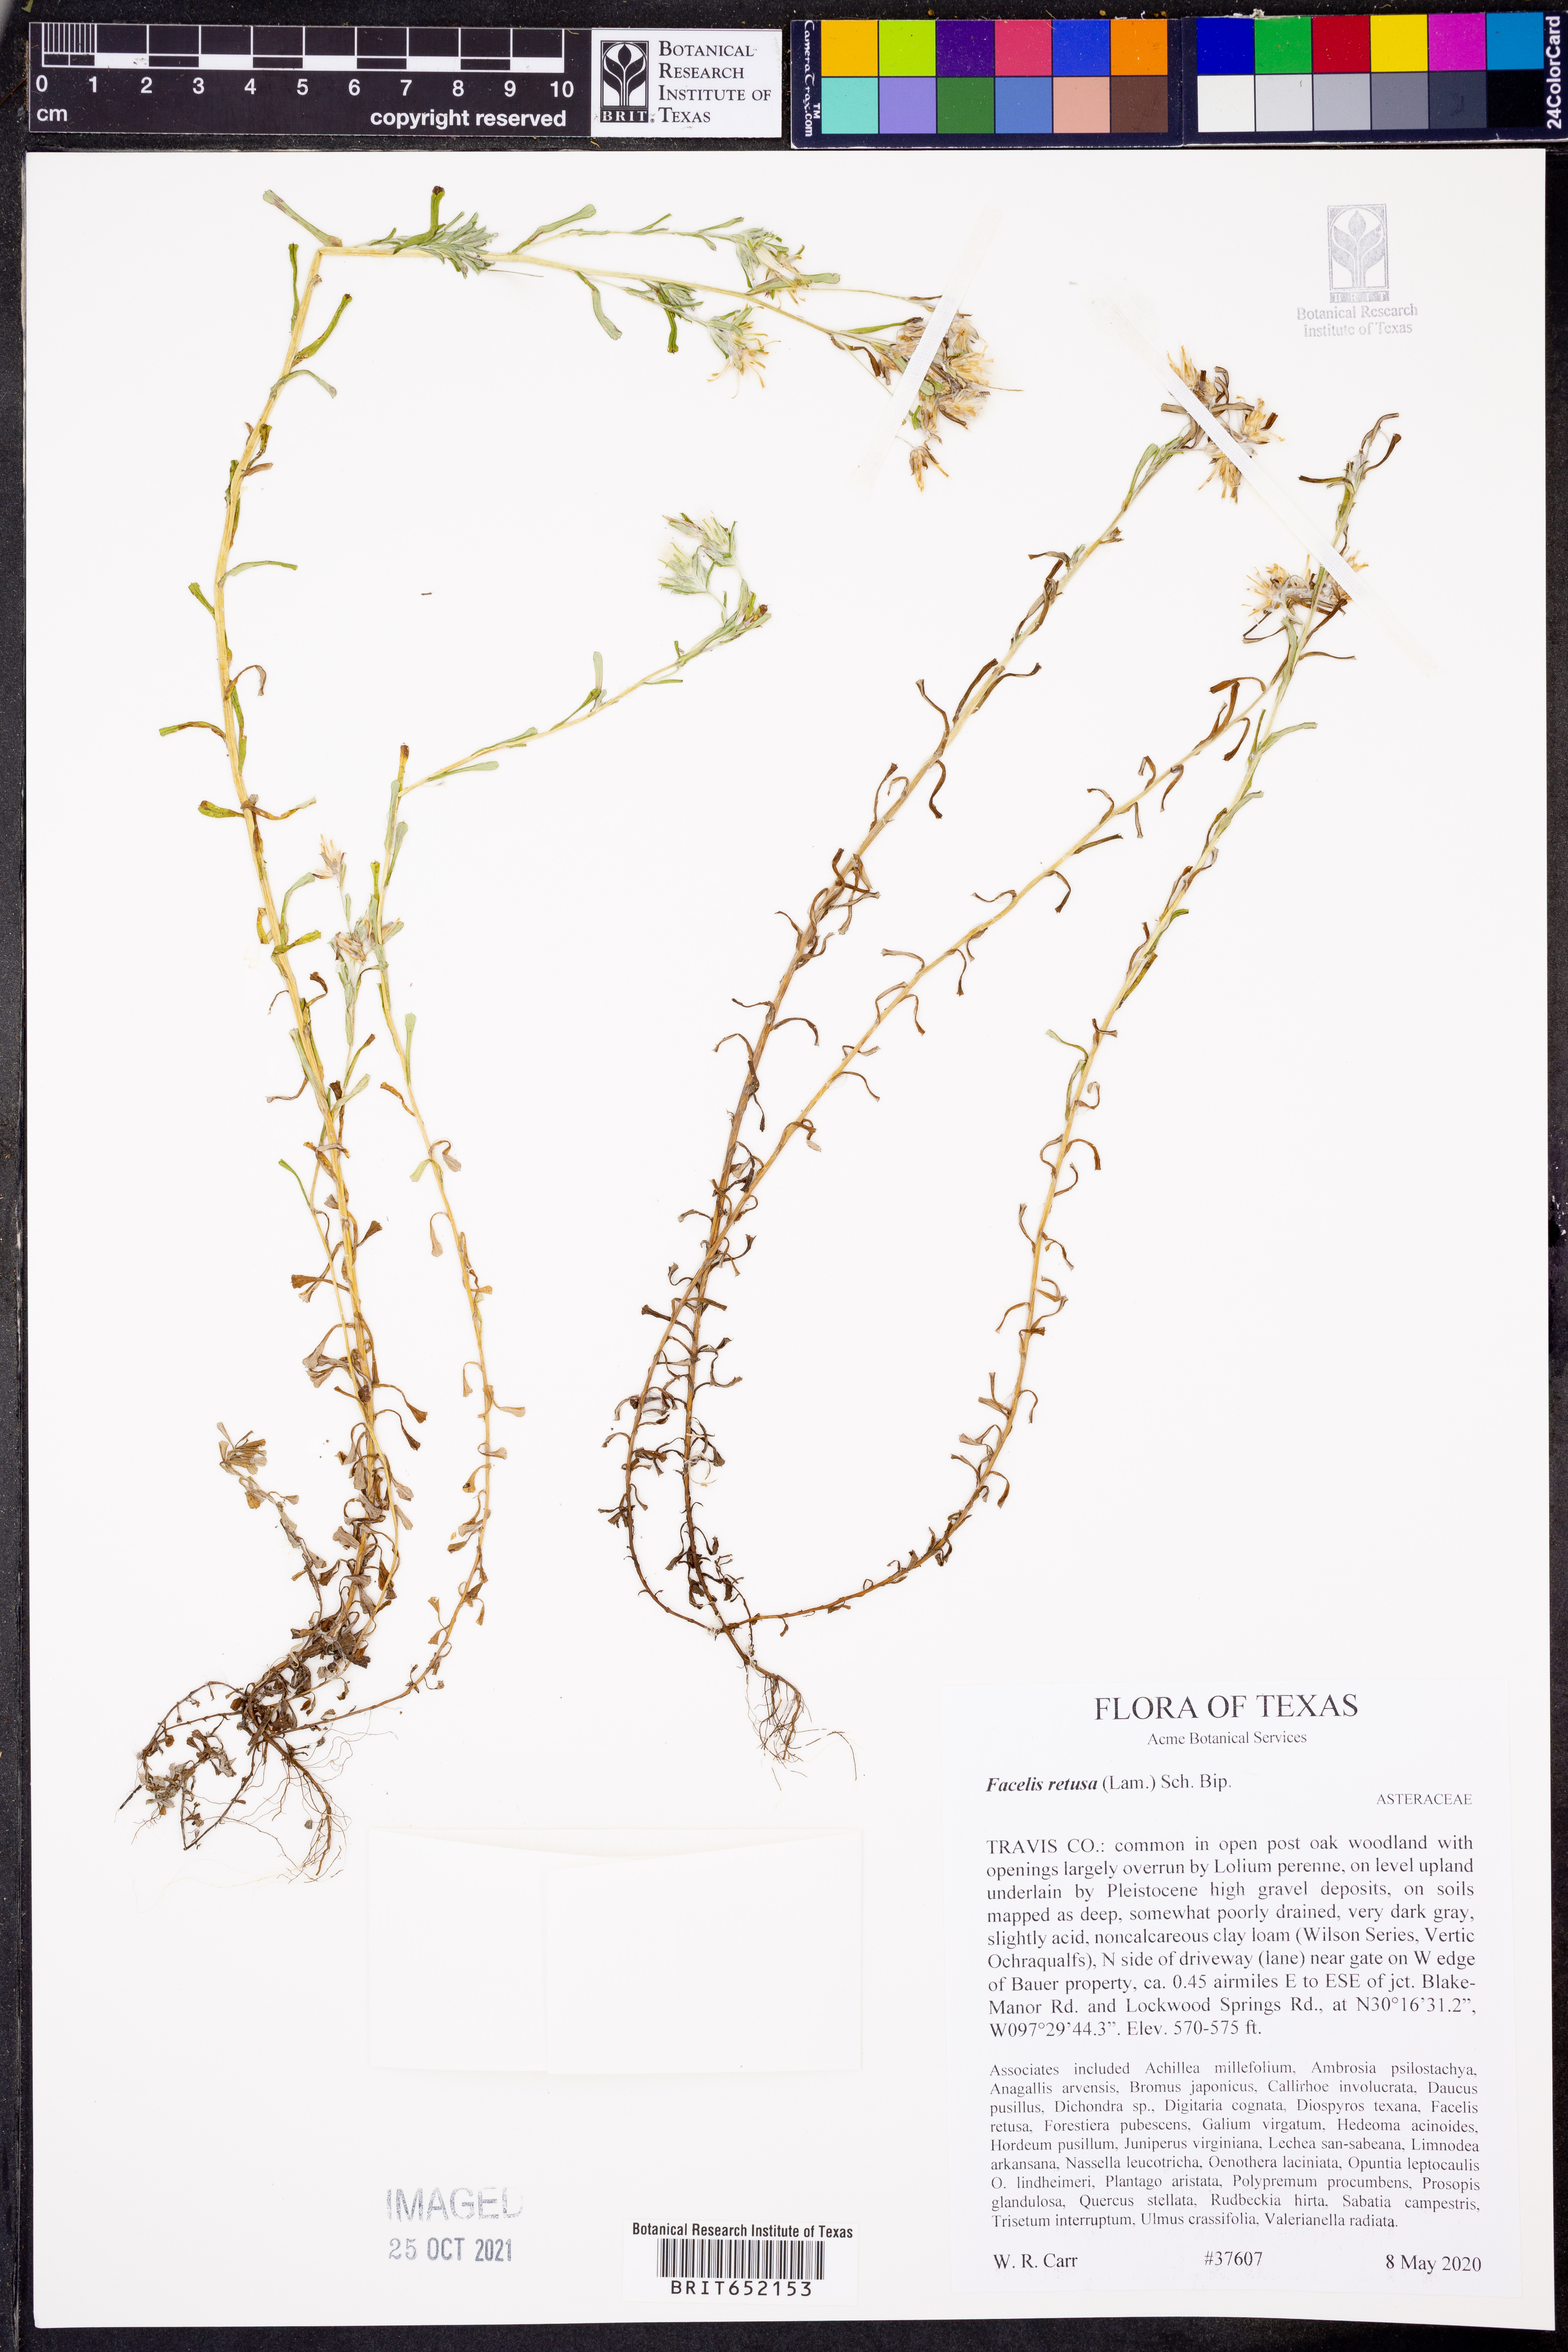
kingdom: Plantae
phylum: Tracheophyta
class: Magnoliopsida
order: Asterales
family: Asteraceae
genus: Facelis
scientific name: Facelis retusa
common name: Annual trampweed
